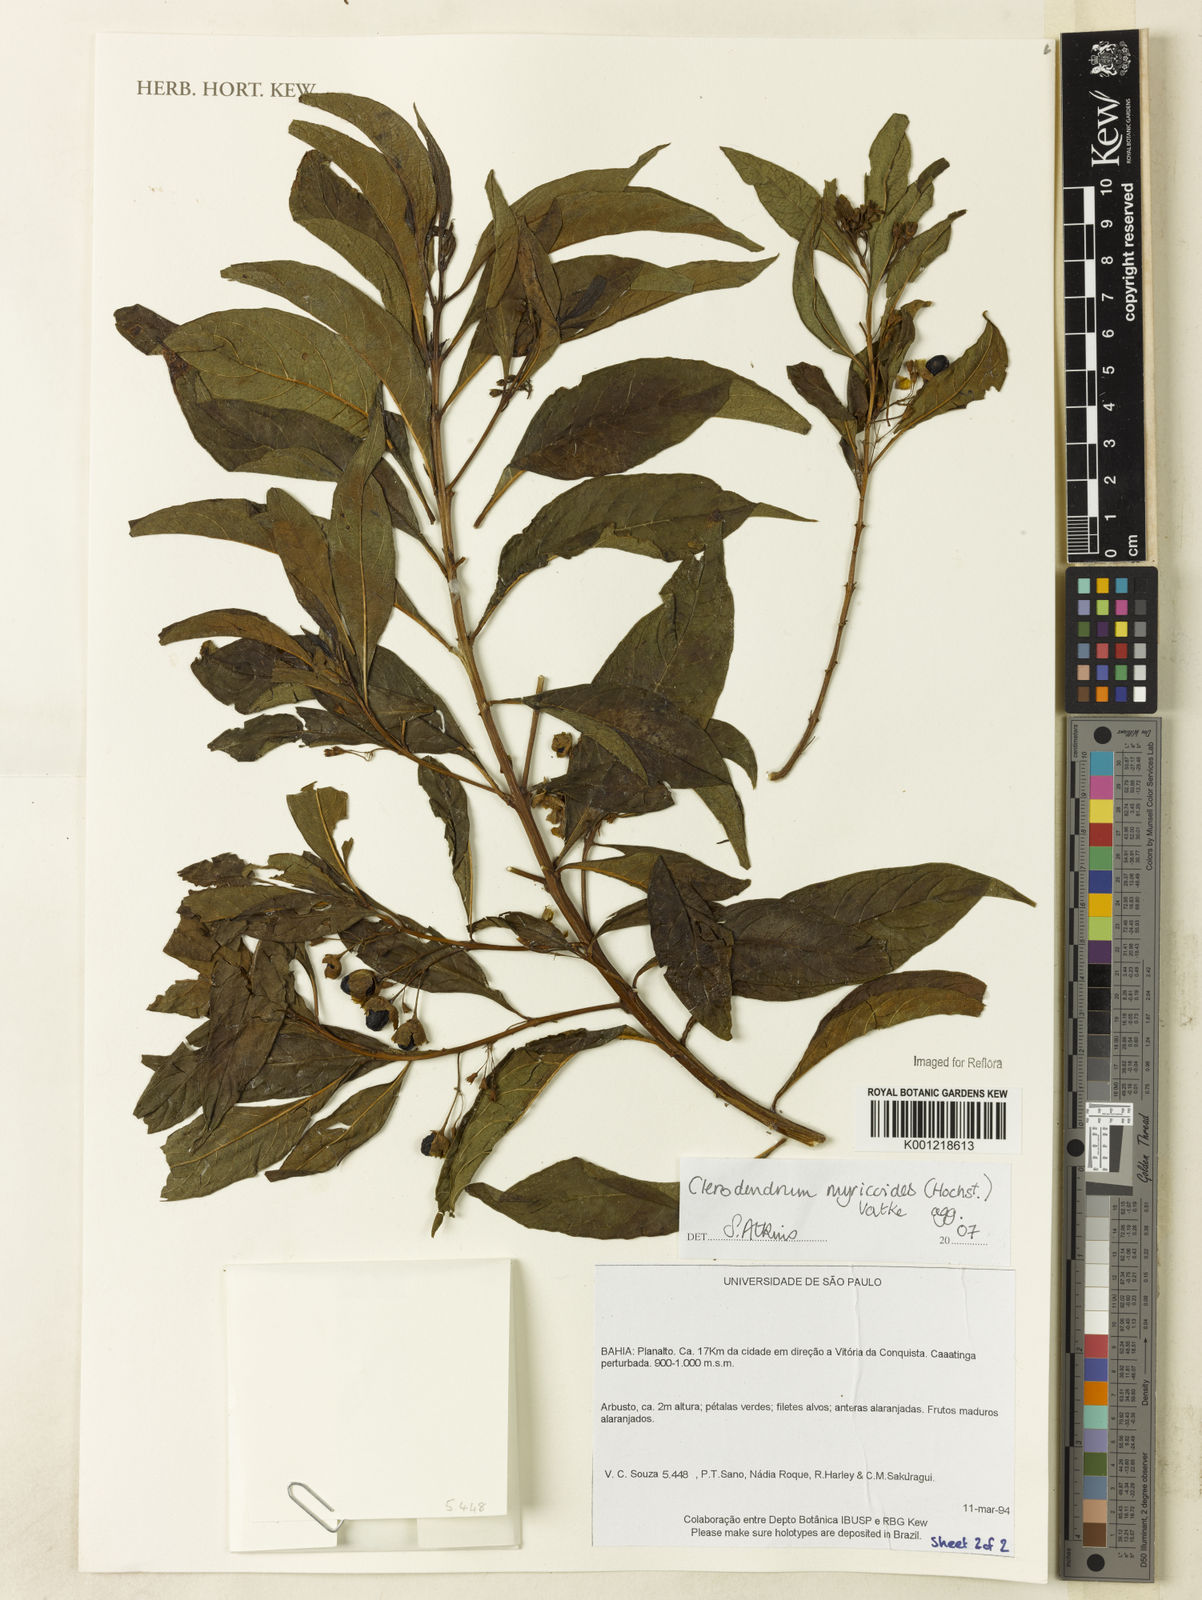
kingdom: Plantae
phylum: Tracheophyta
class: Magnoliopsida
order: Lamiales
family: Lamiaceae
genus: Rotheca
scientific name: Rotheca myricoides
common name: Cats-whiskers
